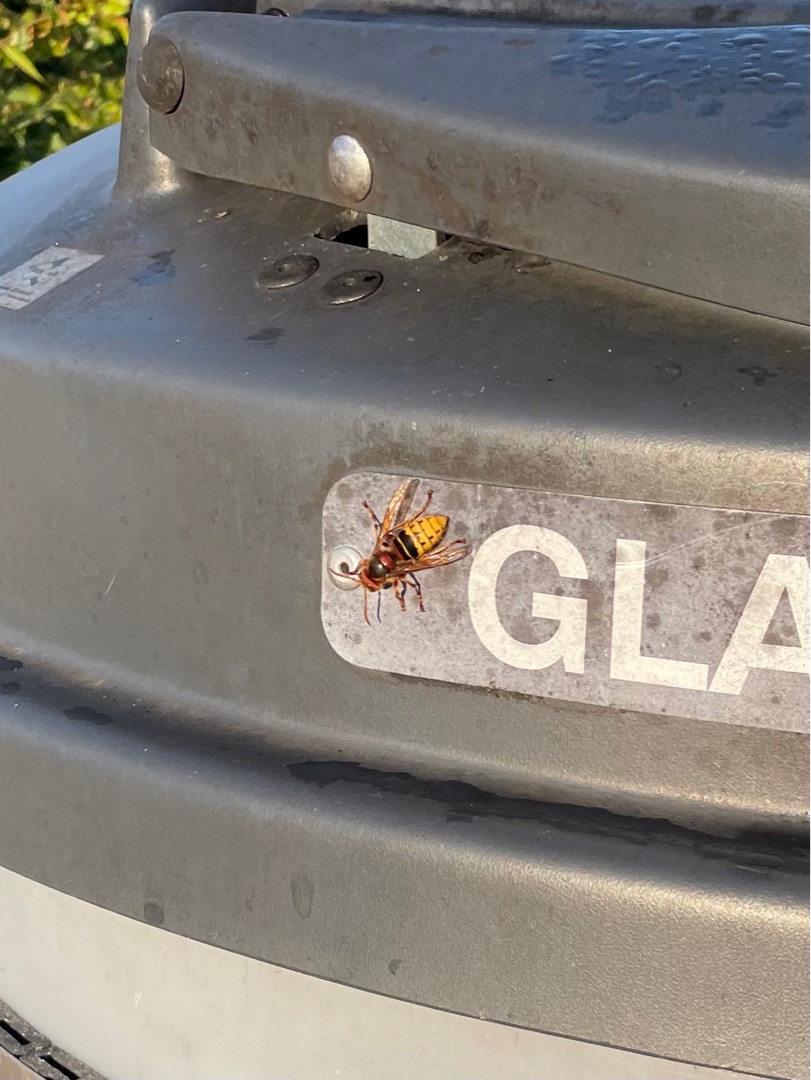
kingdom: Animalia
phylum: Arthropoda
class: Insecta
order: Hymenoptera
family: Vespidae
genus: Vespa
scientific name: Vespa crabro
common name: Stor gedehams
